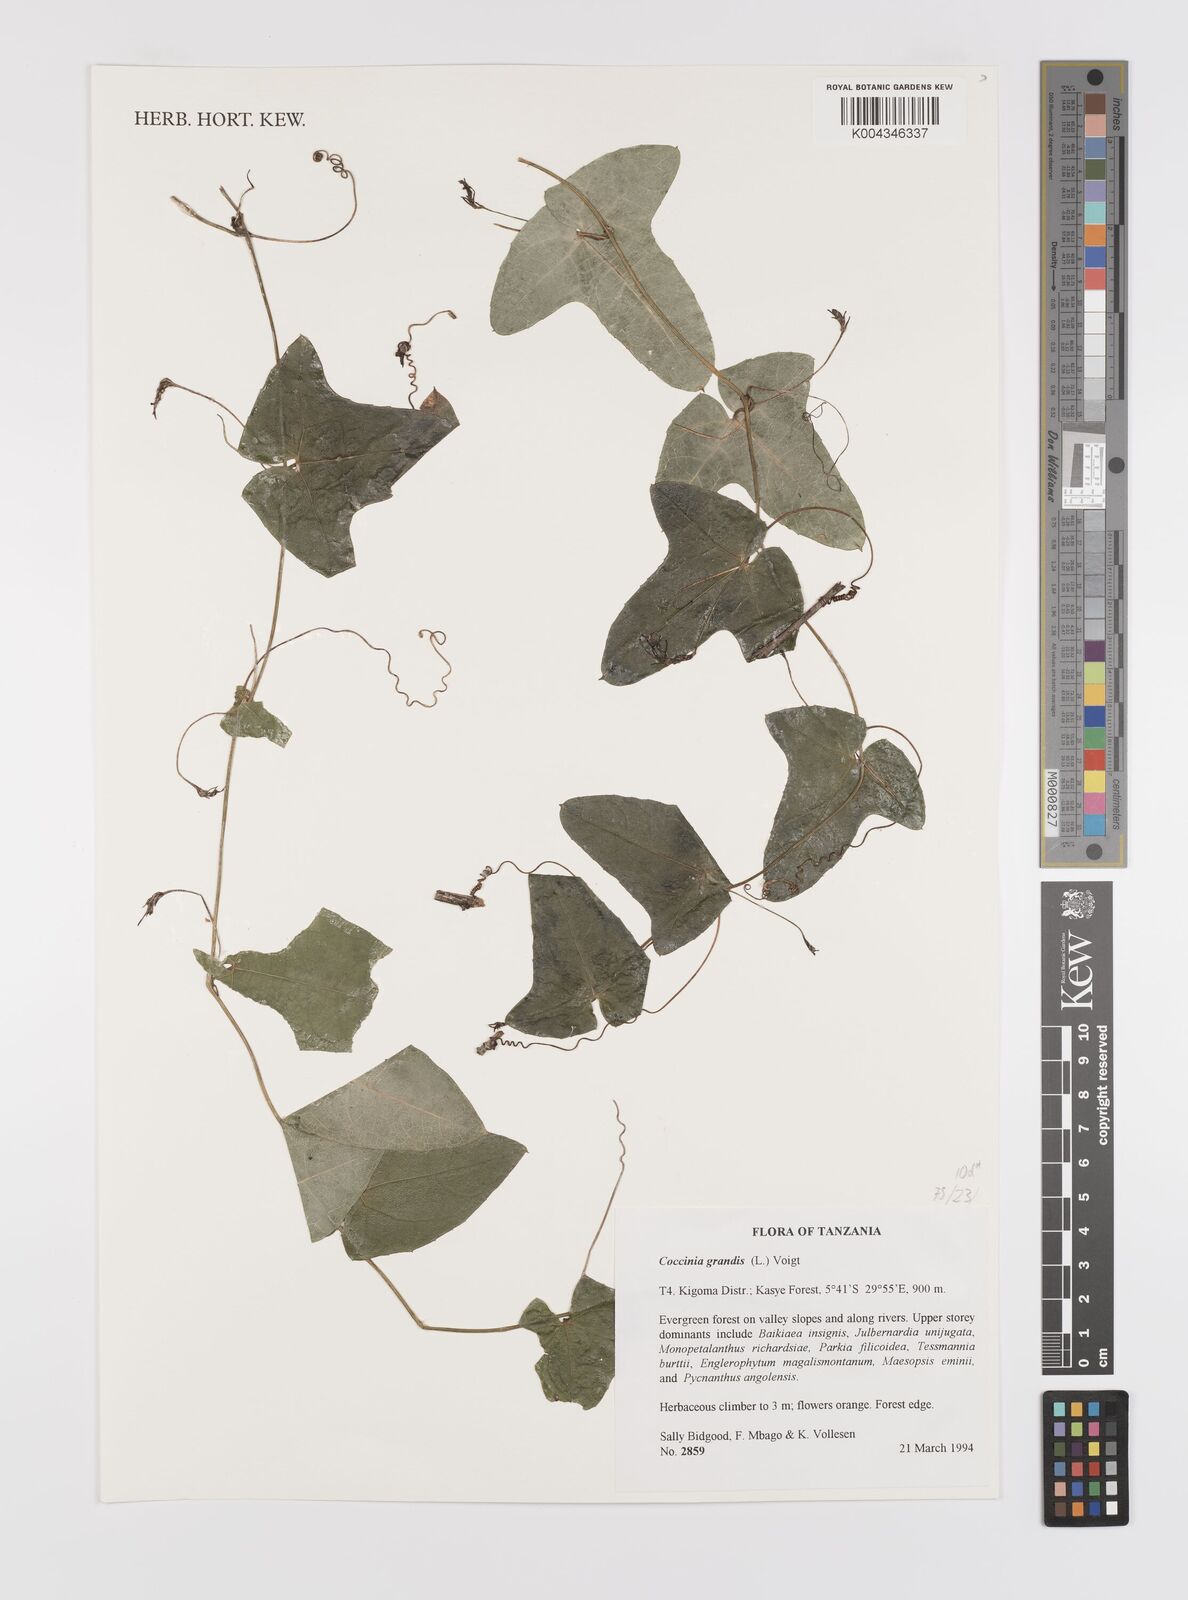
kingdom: Plantae
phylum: Tracheophyta
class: Magnoliopsida
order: Cucurbitales
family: Cucurbitaceae
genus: Coccinia
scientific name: Coccinia grandis
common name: Ivy gourd
